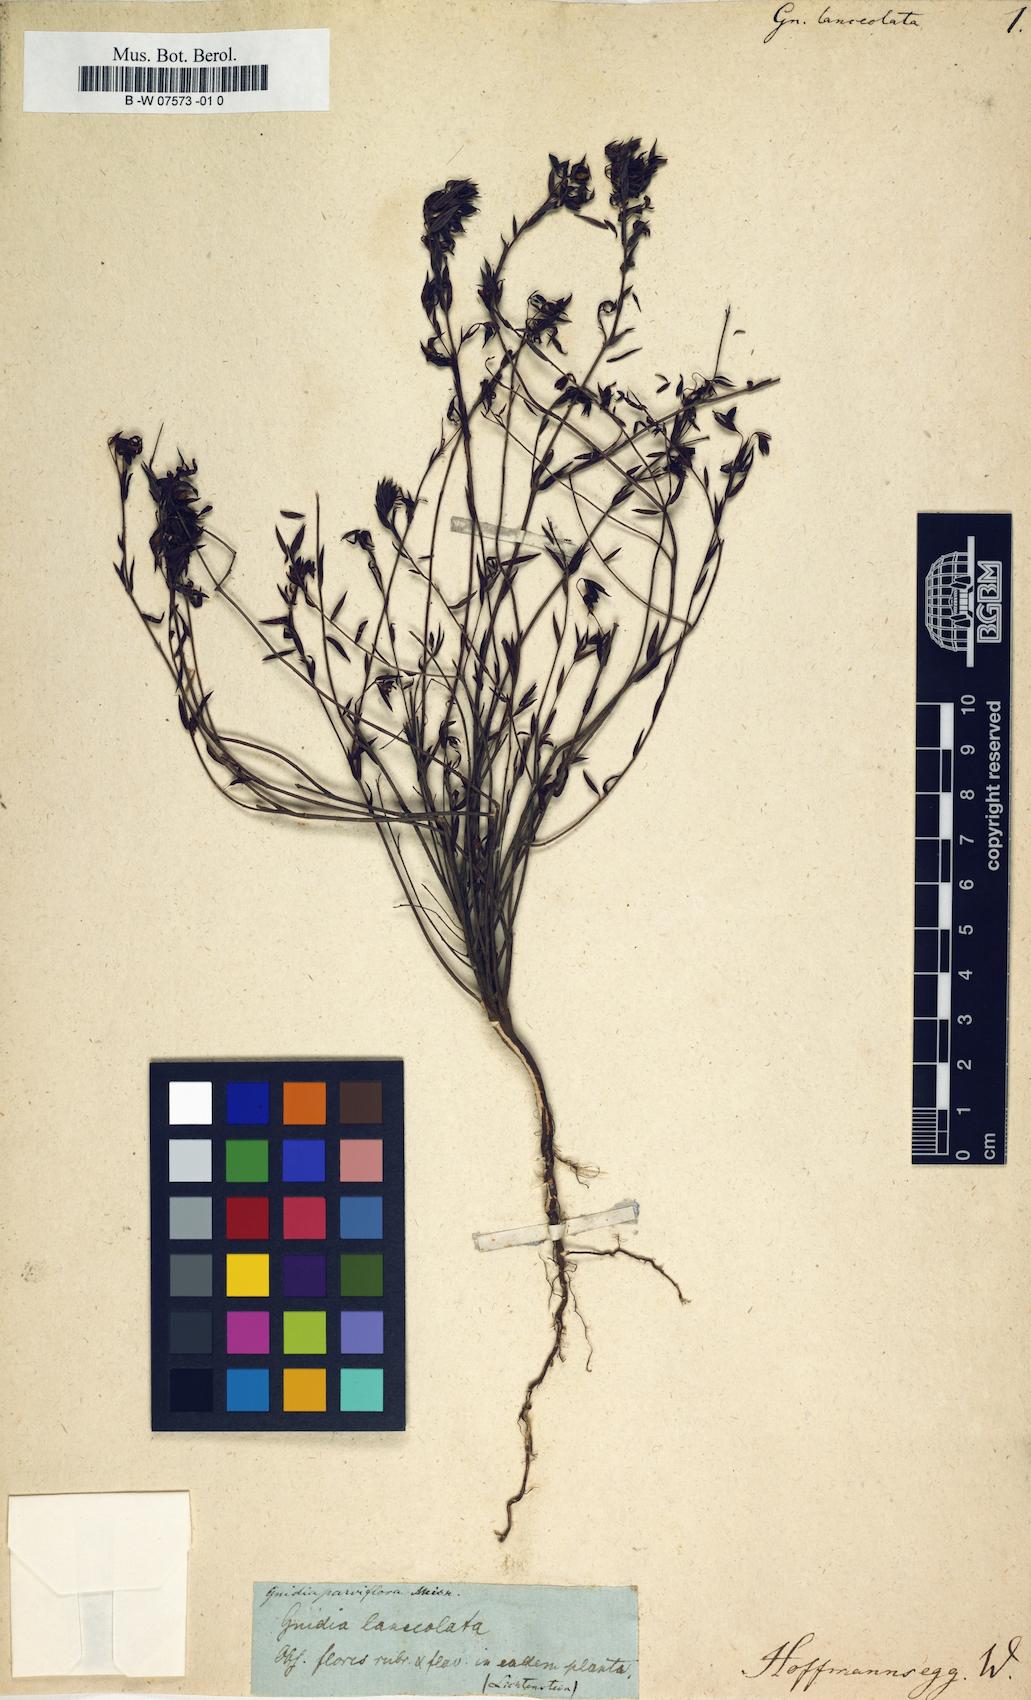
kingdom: Plantae
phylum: Tracheophyta
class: Magnoliopsida
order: Malvales
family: Thymelaeaceae
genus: Gnidia
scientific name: Gnidia parviflora
